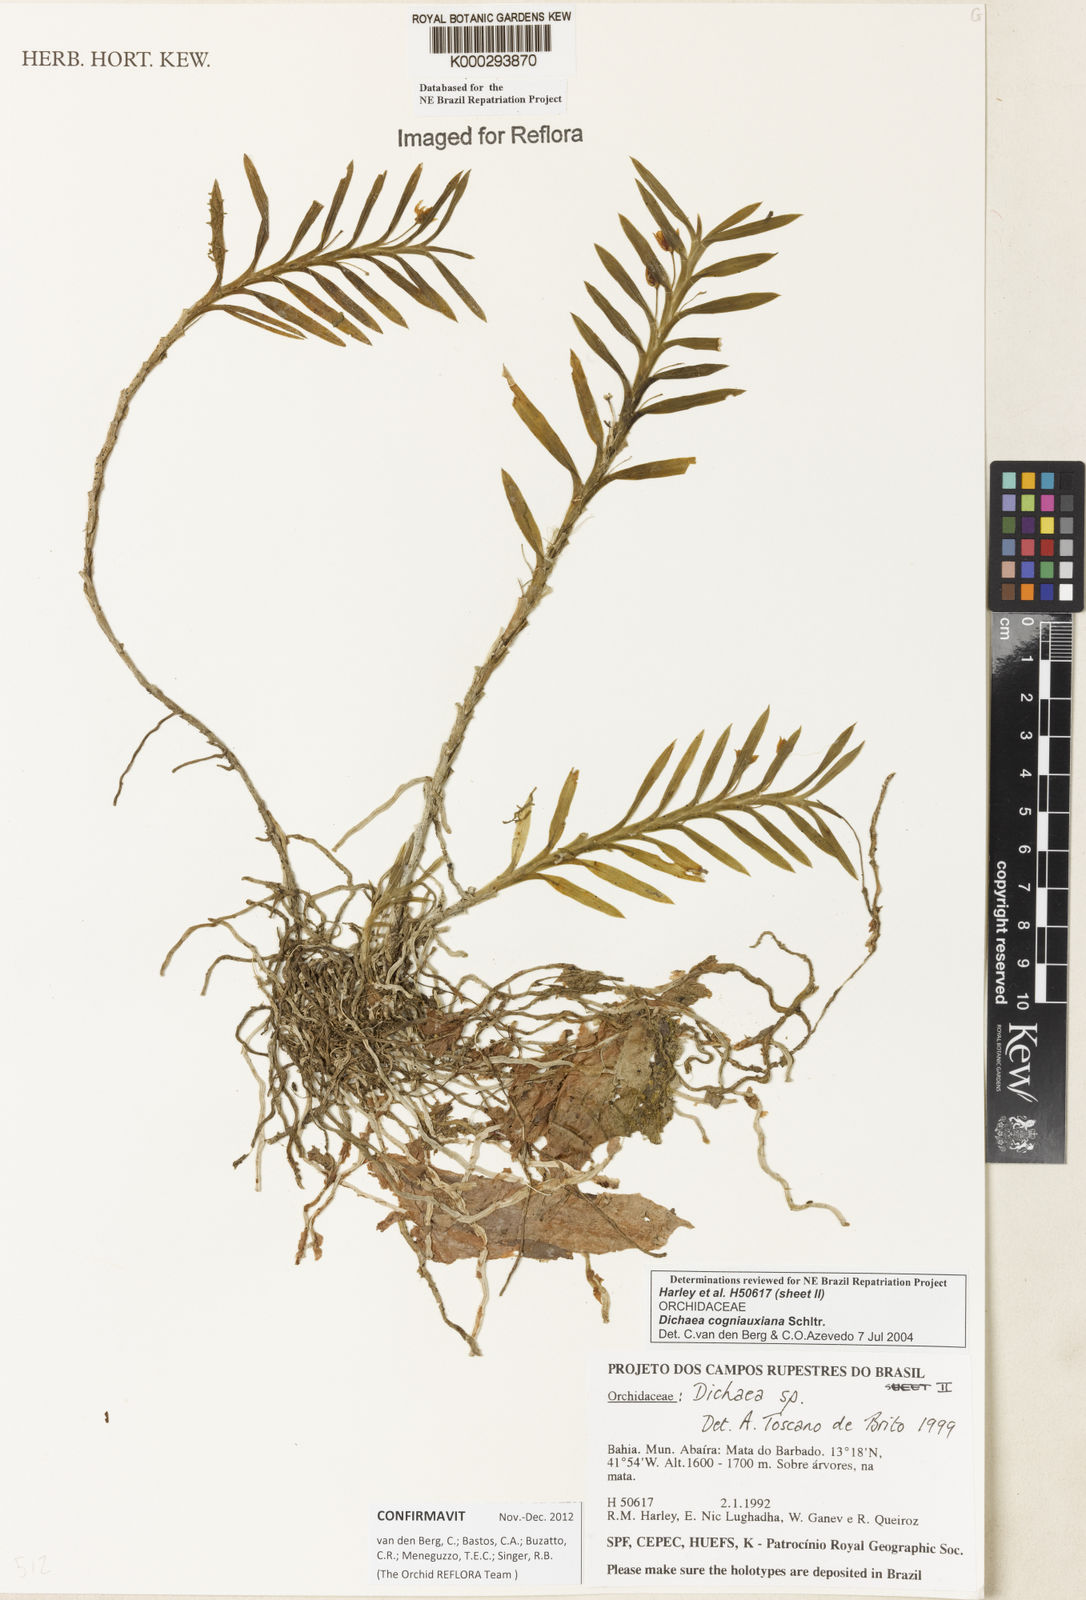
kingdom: Plantae
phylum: Tracheophyta
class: Liliopsida
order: Asparagales
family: Orchidaceae
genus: Dichaea
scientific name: Dichaea cogniauxiana
